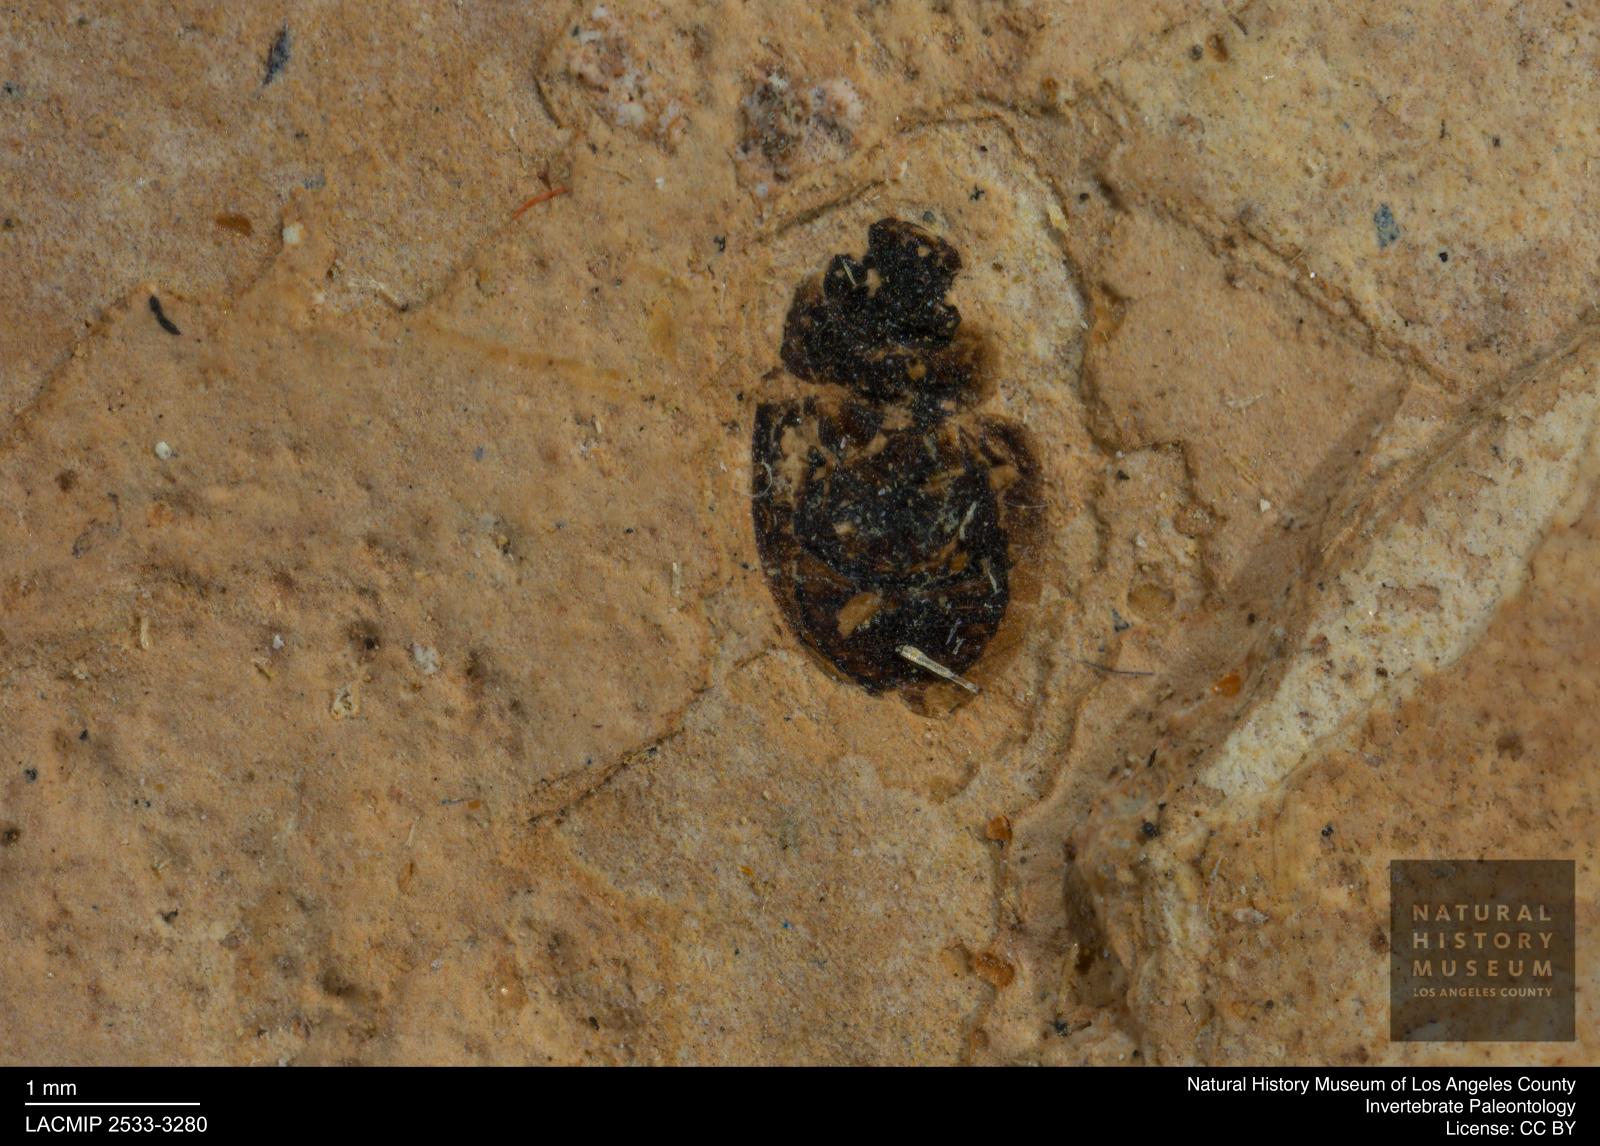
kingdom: Animalia
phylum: Arthropoda
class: Insecta
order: Coleoptera
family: Hydrophilidae
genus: Paracymus
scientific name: Paracymus excitatus
